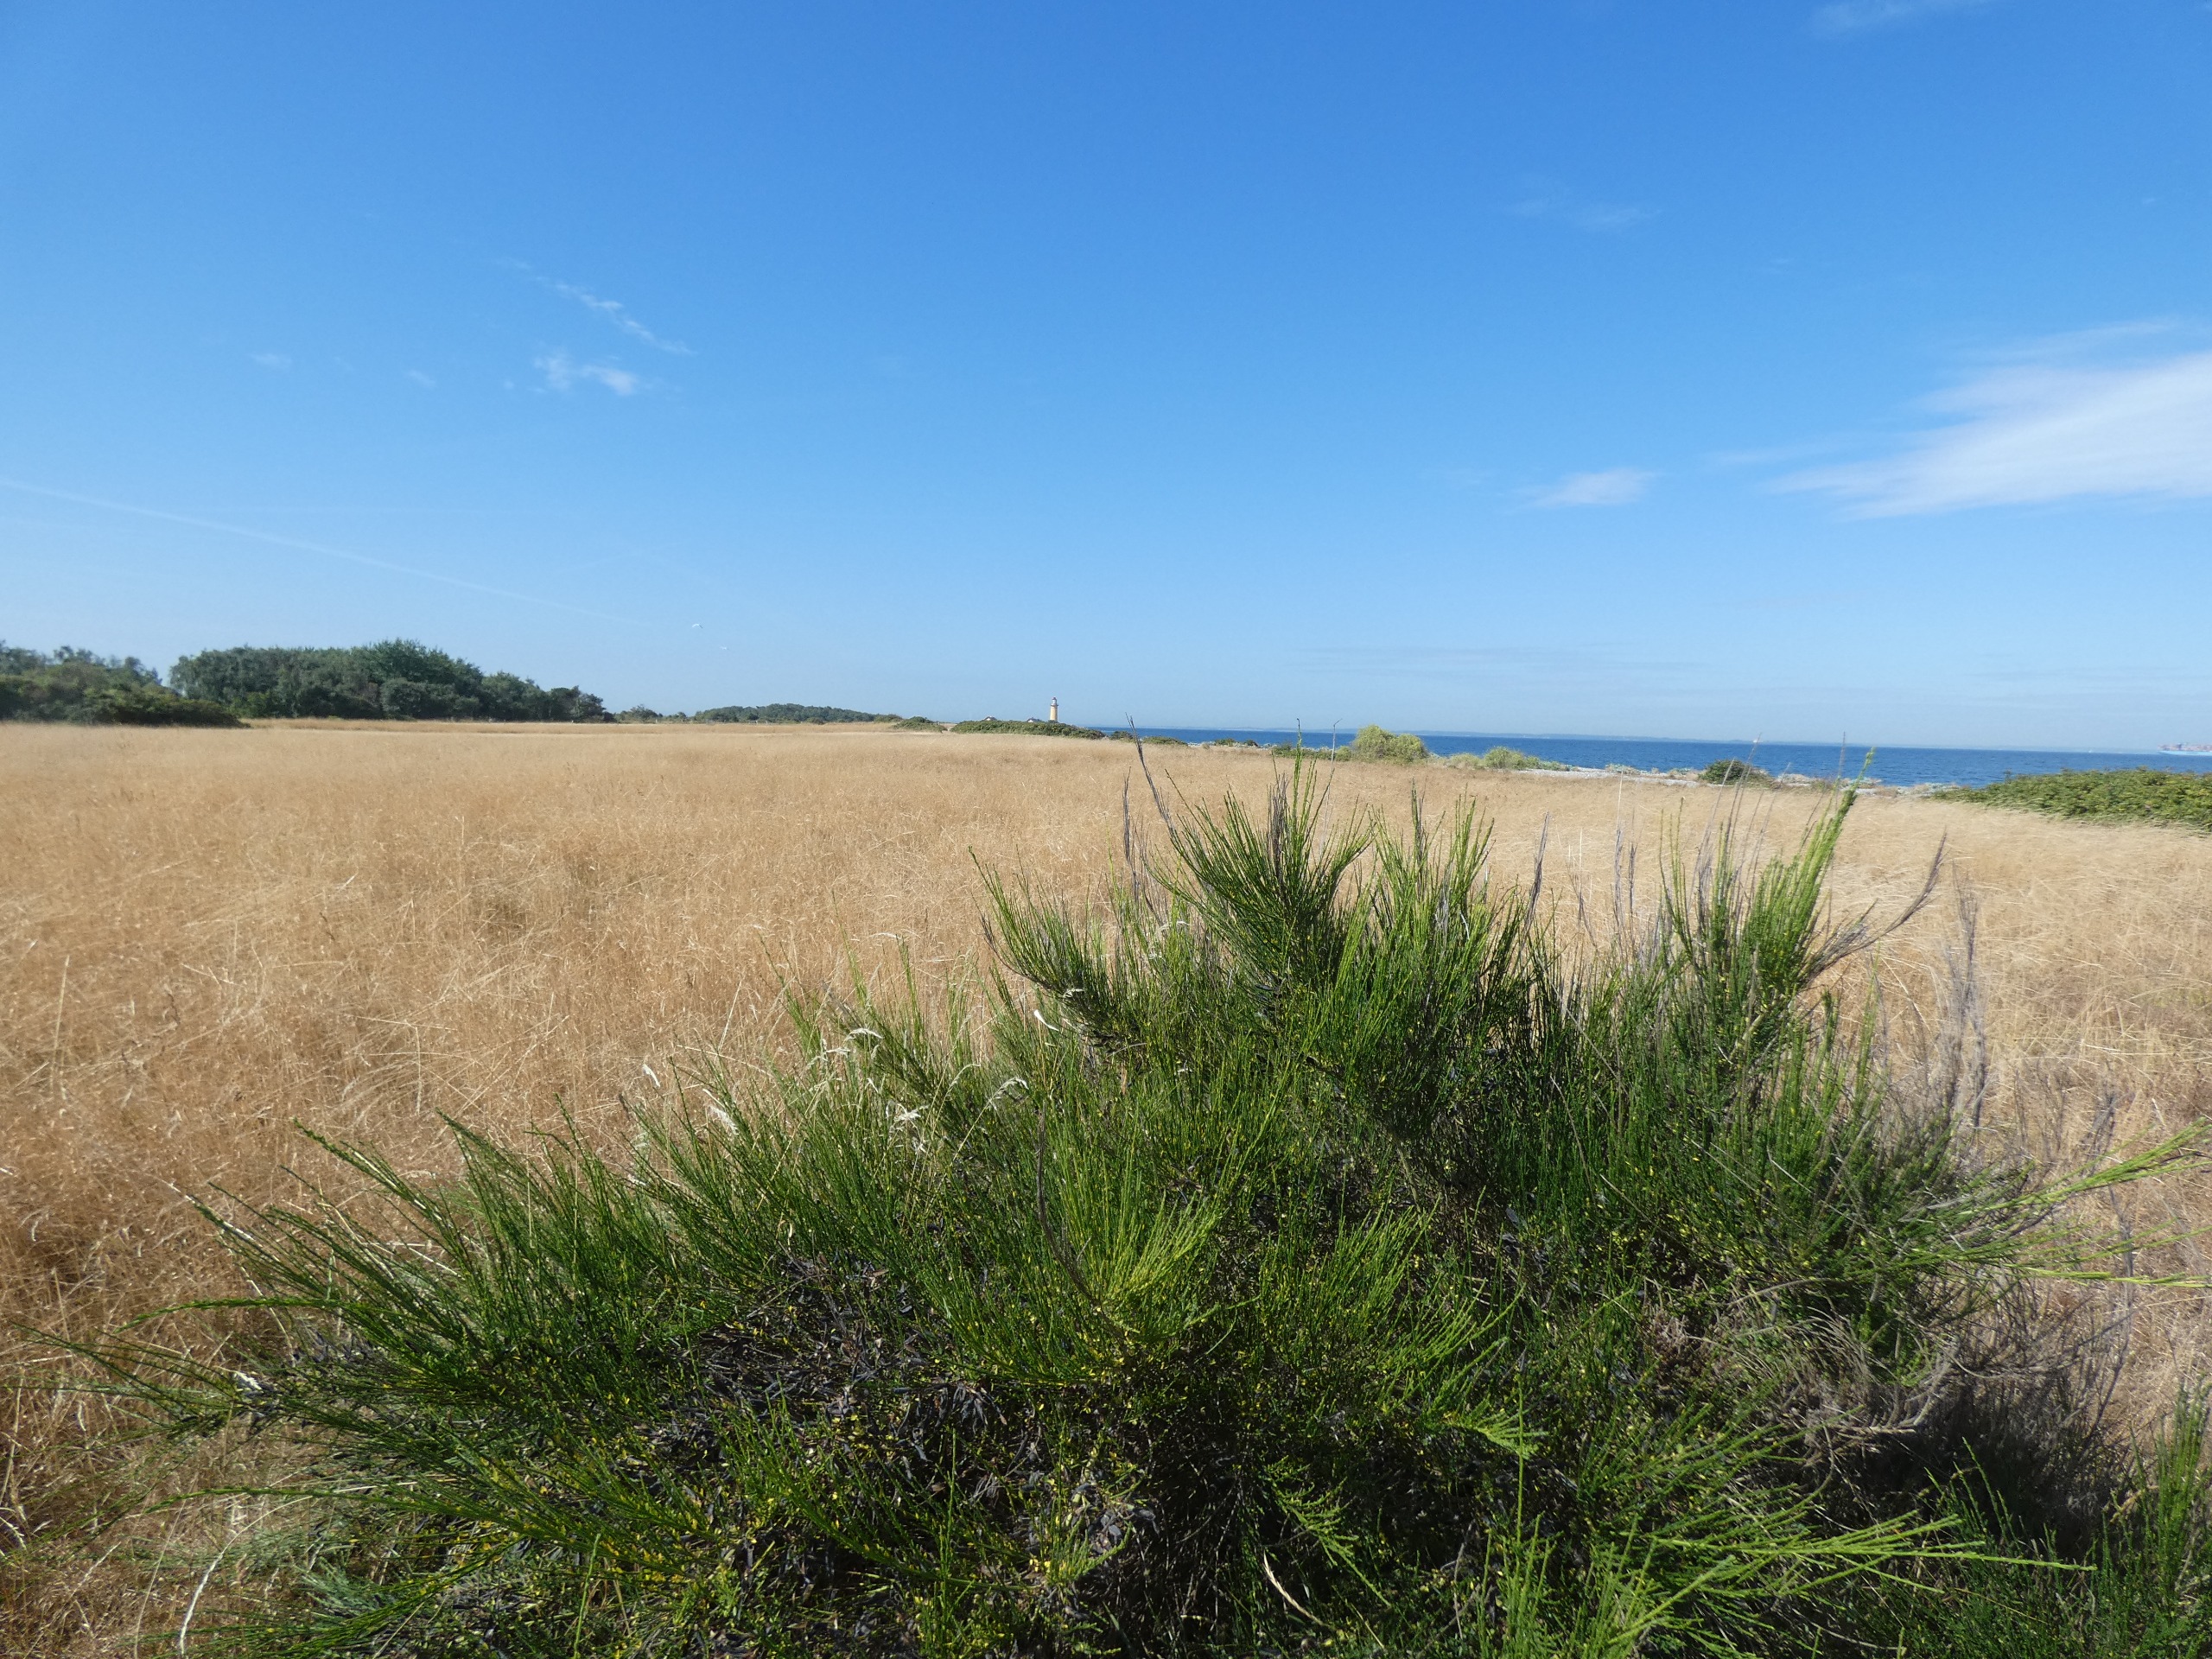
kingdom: Plantae
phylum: Tracheophyta
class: Magnoliopsida
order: Fabales
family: Fabaceae
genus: Cytisus
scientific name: Cytisus scoparius
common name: Almindelig gyvel
